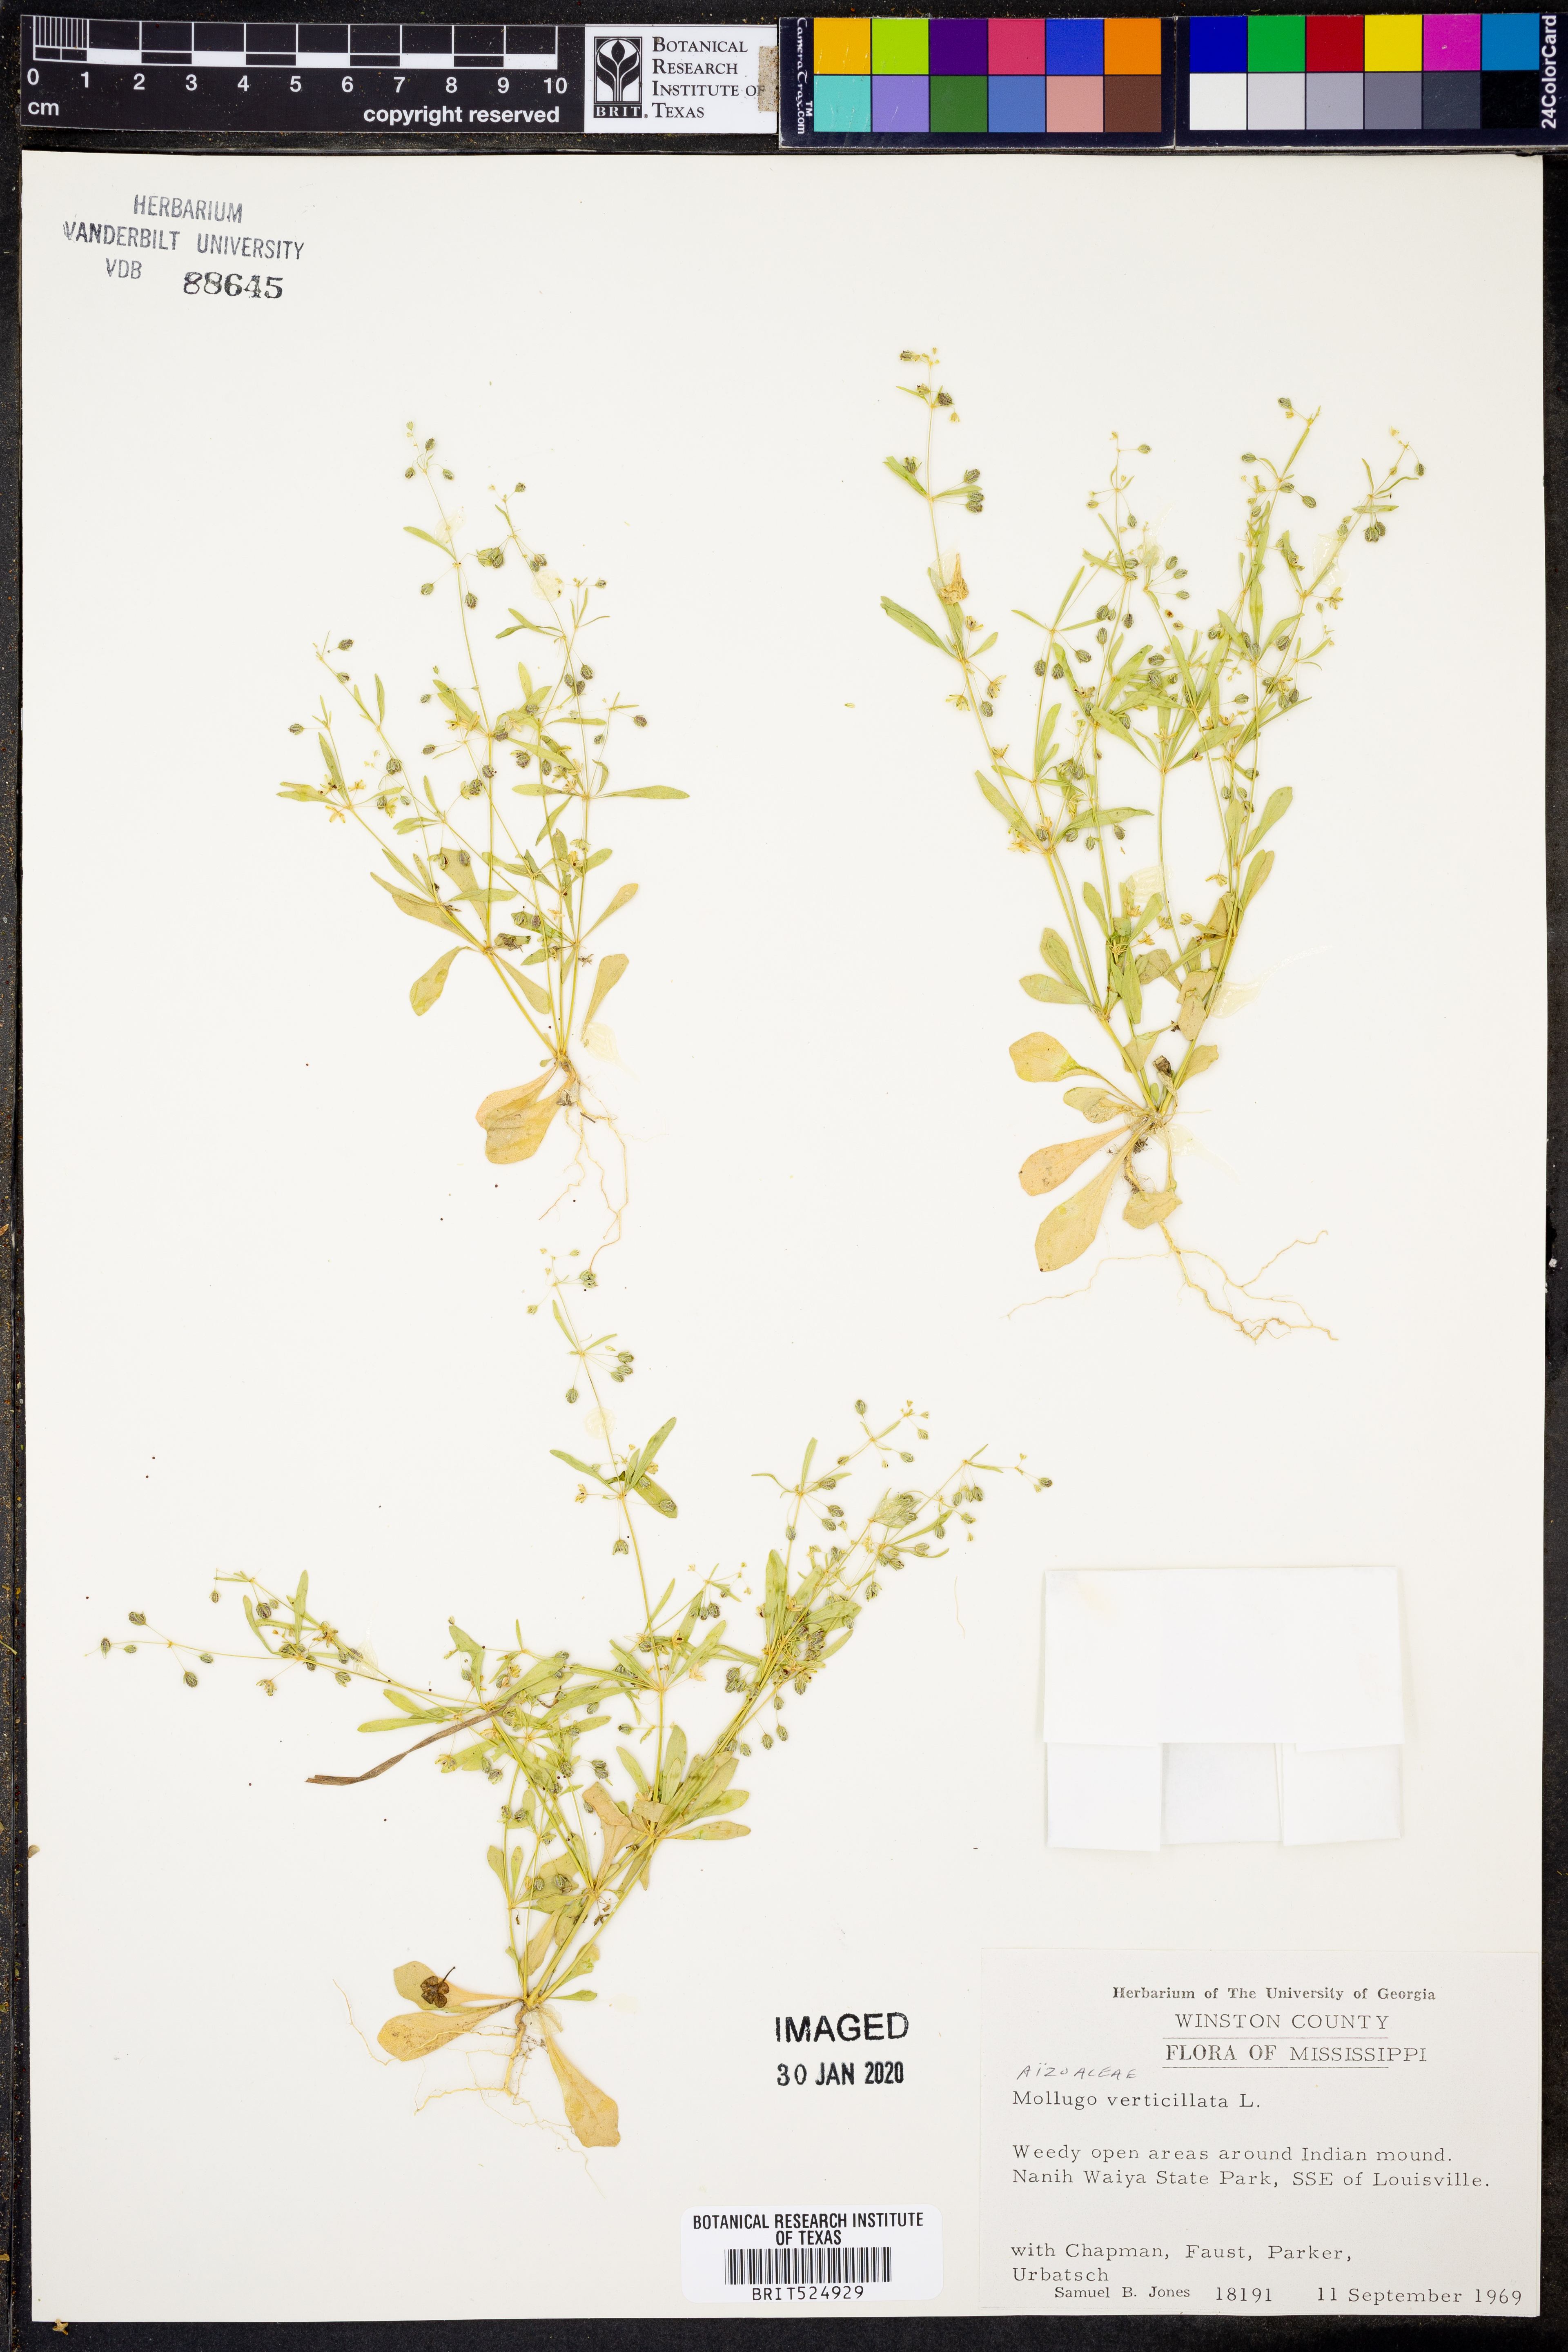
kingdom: Plantae
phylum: Tracheophyta
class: Magnoliopsida
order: Caryophyllales
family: Molluginaceae
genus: Mollugo
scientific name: Mollugo verticillata
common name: Green carpetweed
